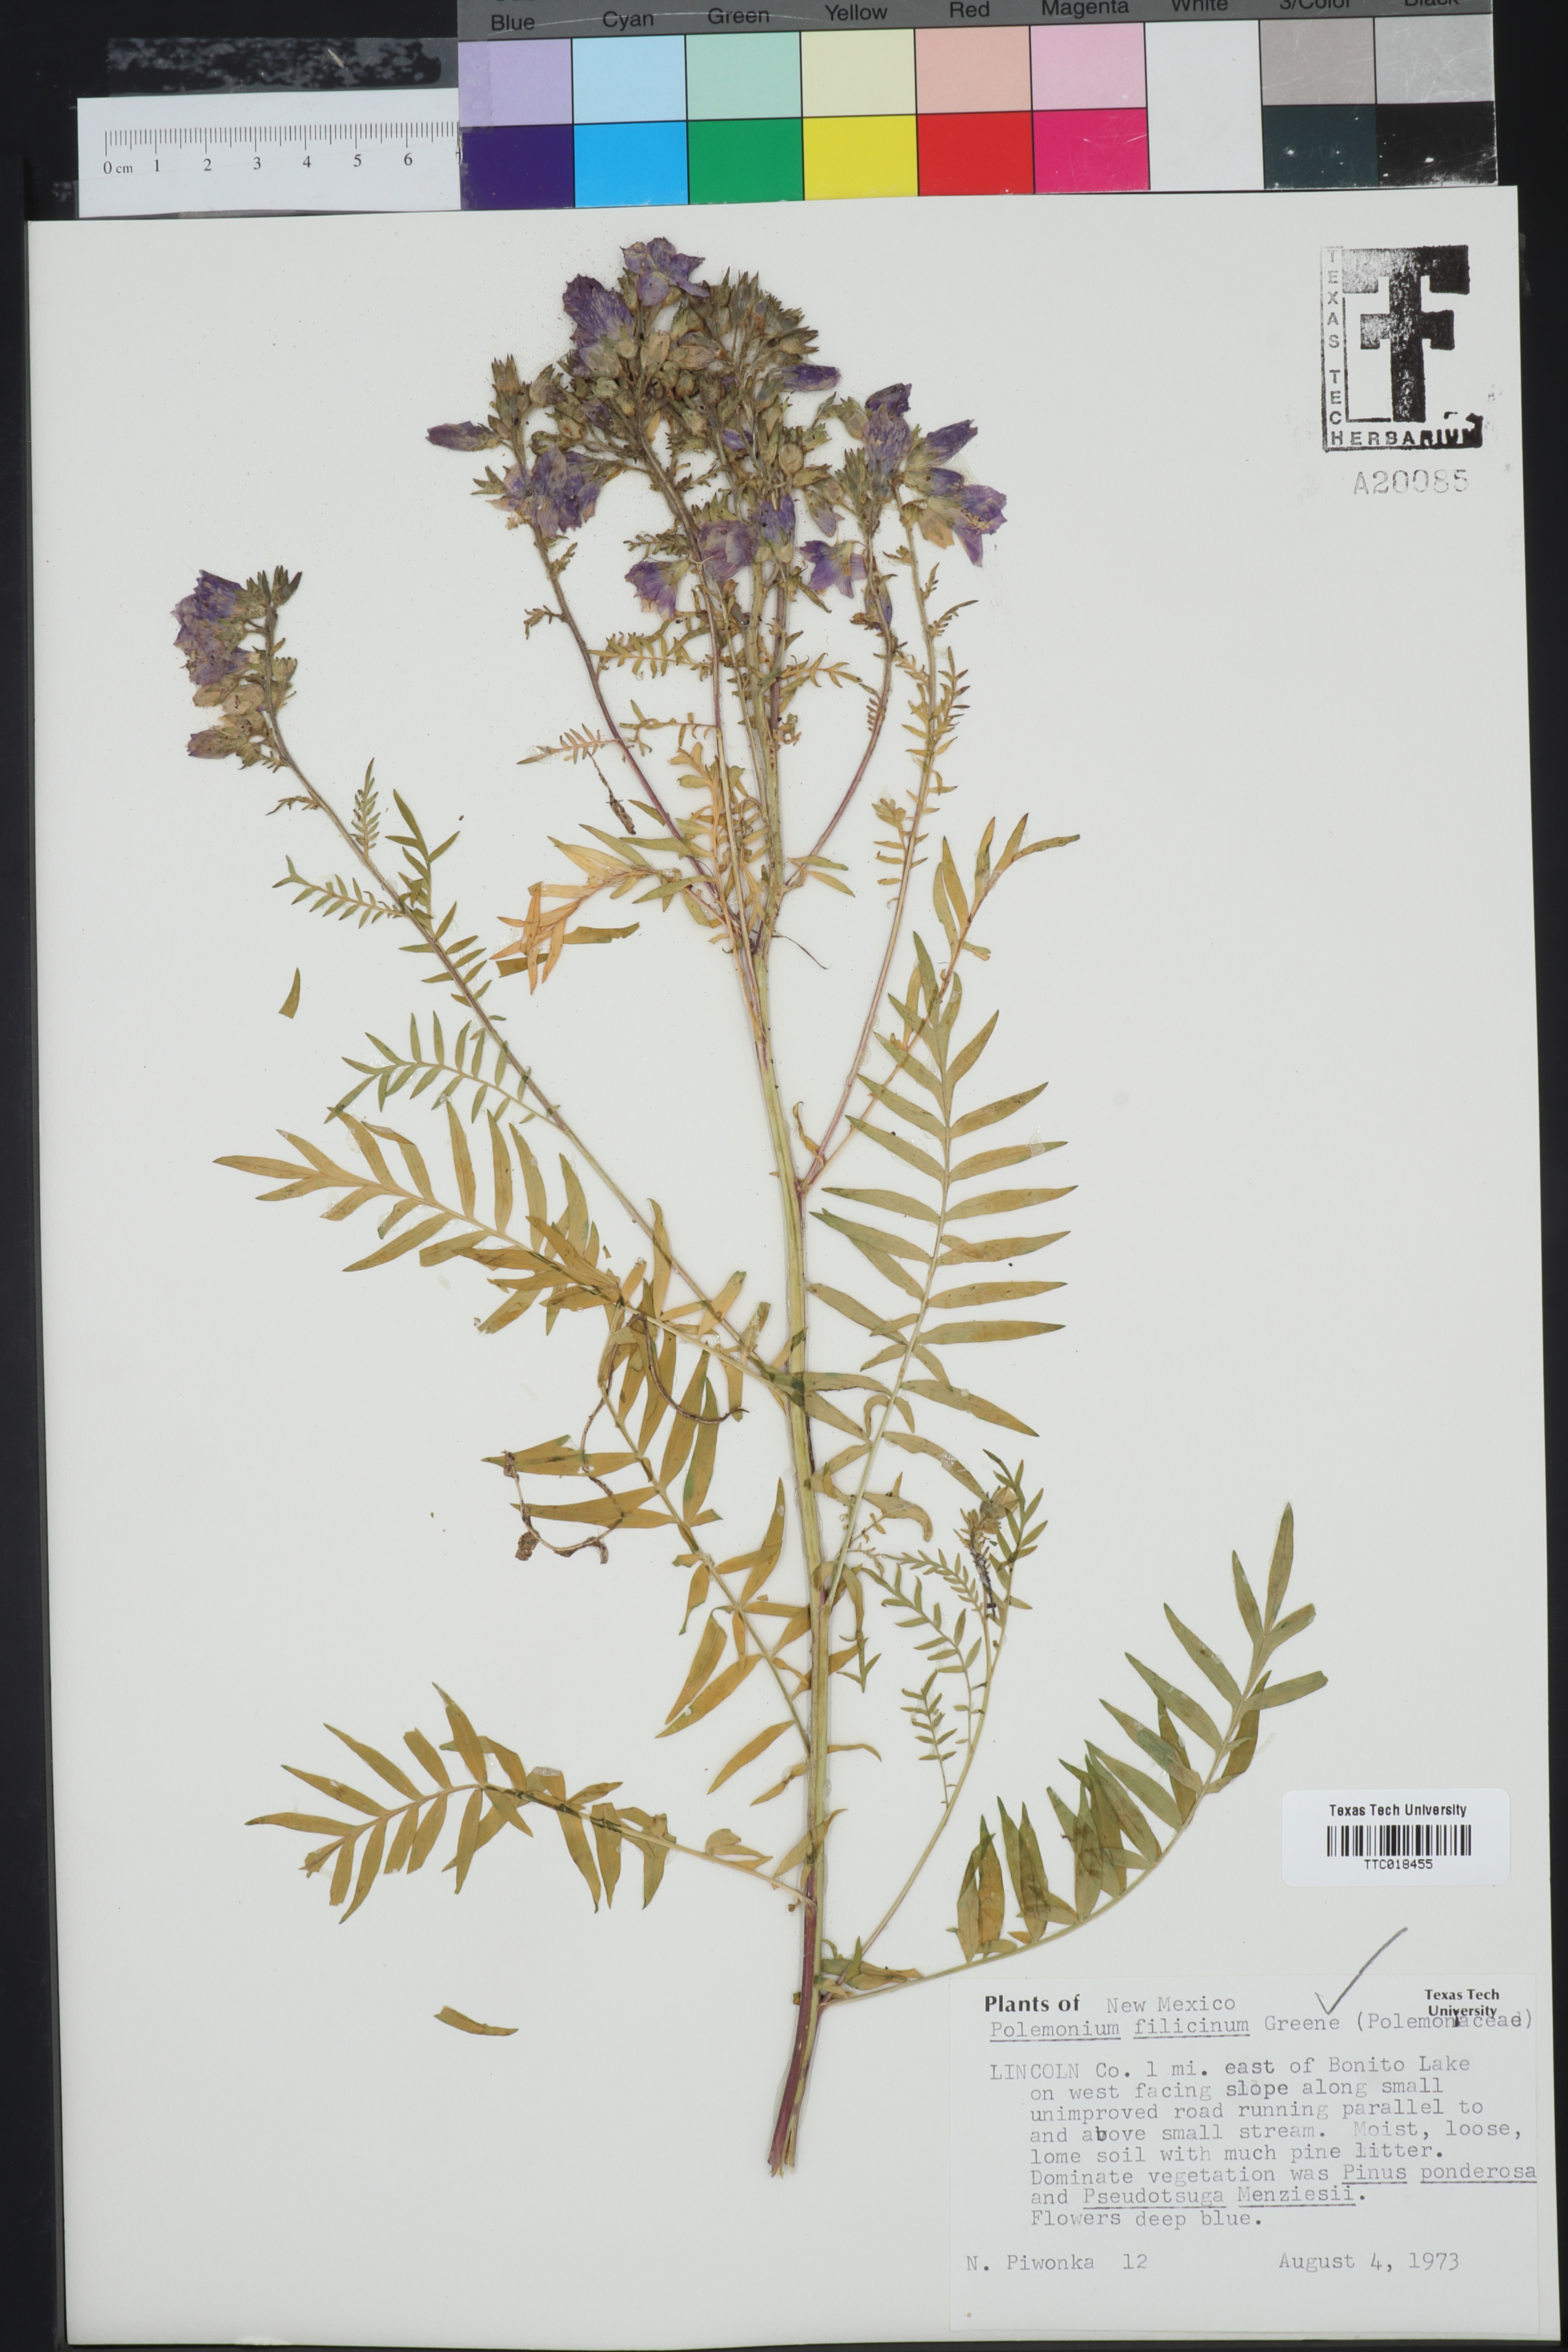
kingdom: Plantae
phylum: Tracheophyta
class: Magnoliopsida
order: Ericales
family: Polemoniaceae
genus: Polemonium
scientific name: Polemonium foliosissimum
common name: Leafy jacob's-ladder
